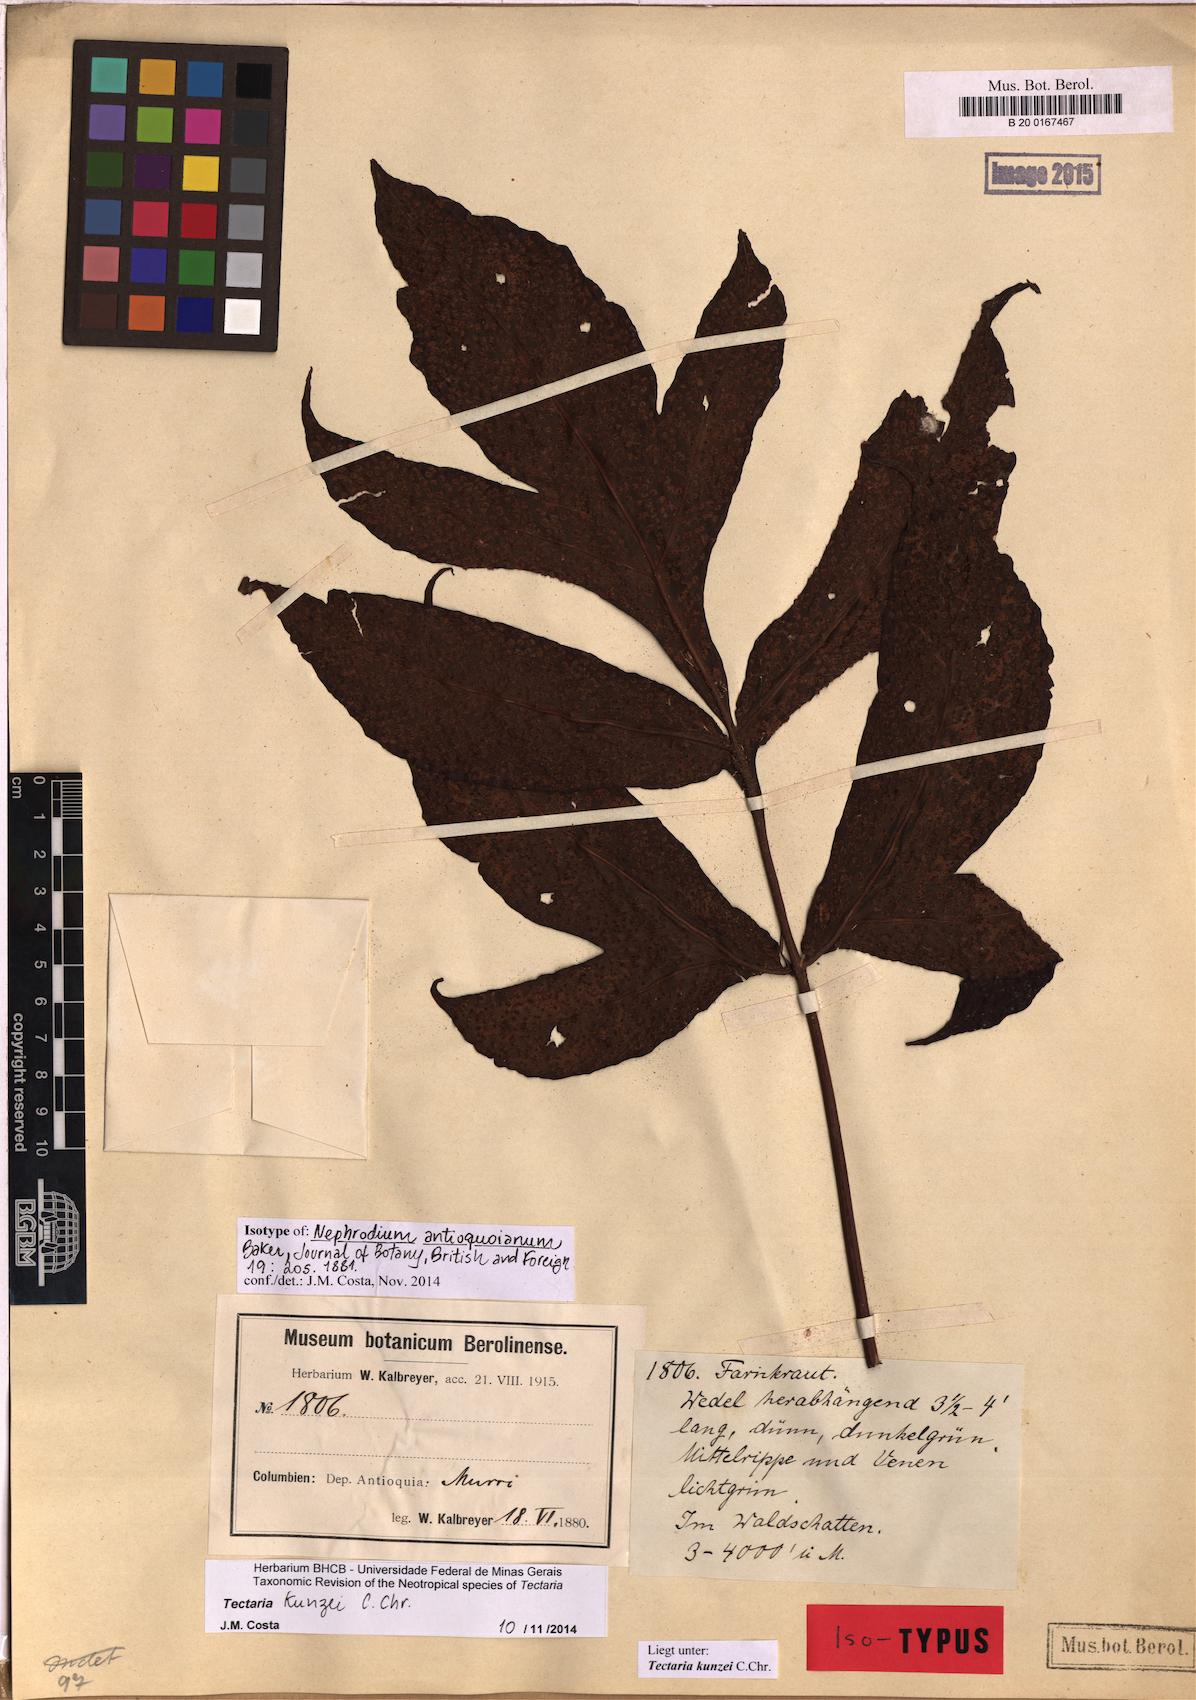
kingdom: Plantae
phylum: Tracheophyta
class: Polypodiopsida
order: Polypodiales
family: Tectariaceae
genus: Tectaria
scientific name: Tectaria kunzei
